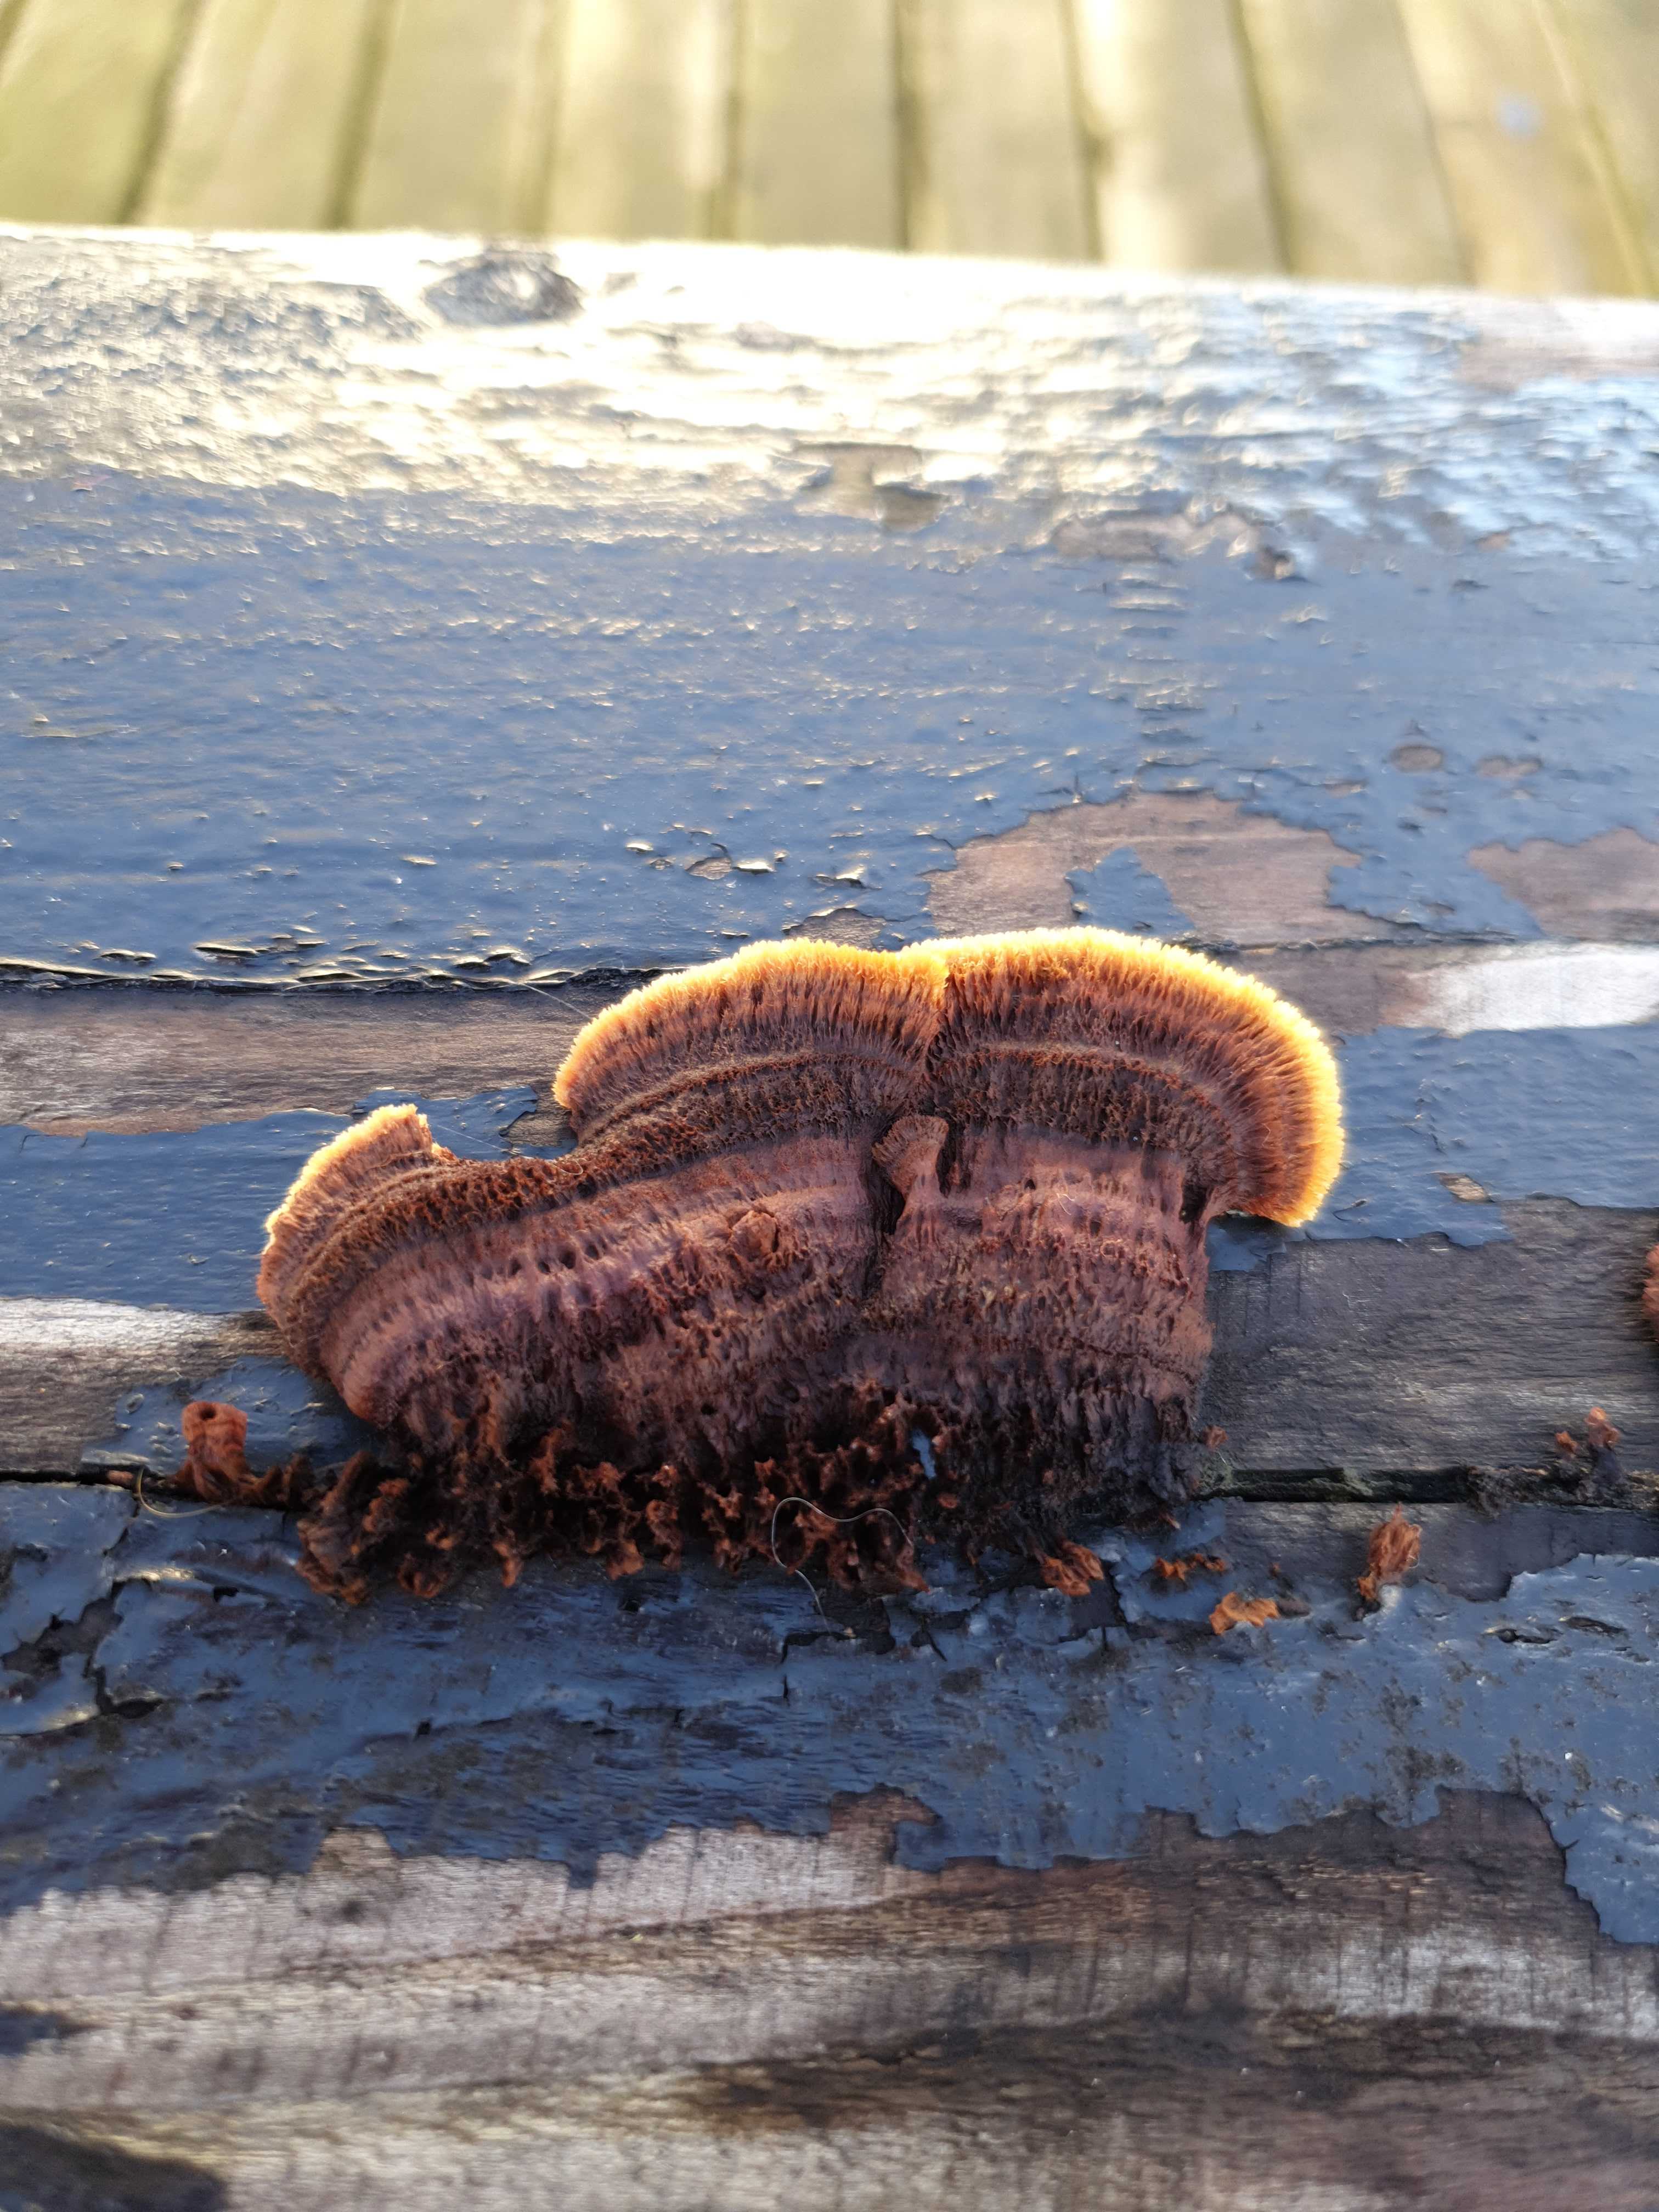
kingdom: Fungi
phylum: Basidiomycota
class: Agaricomycetes
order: Gloeophyllales
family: Gloeophyllaceae
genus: Gloeophyllum
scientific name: Gloeophyllum sepiarium
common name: fyrre-korkhat
